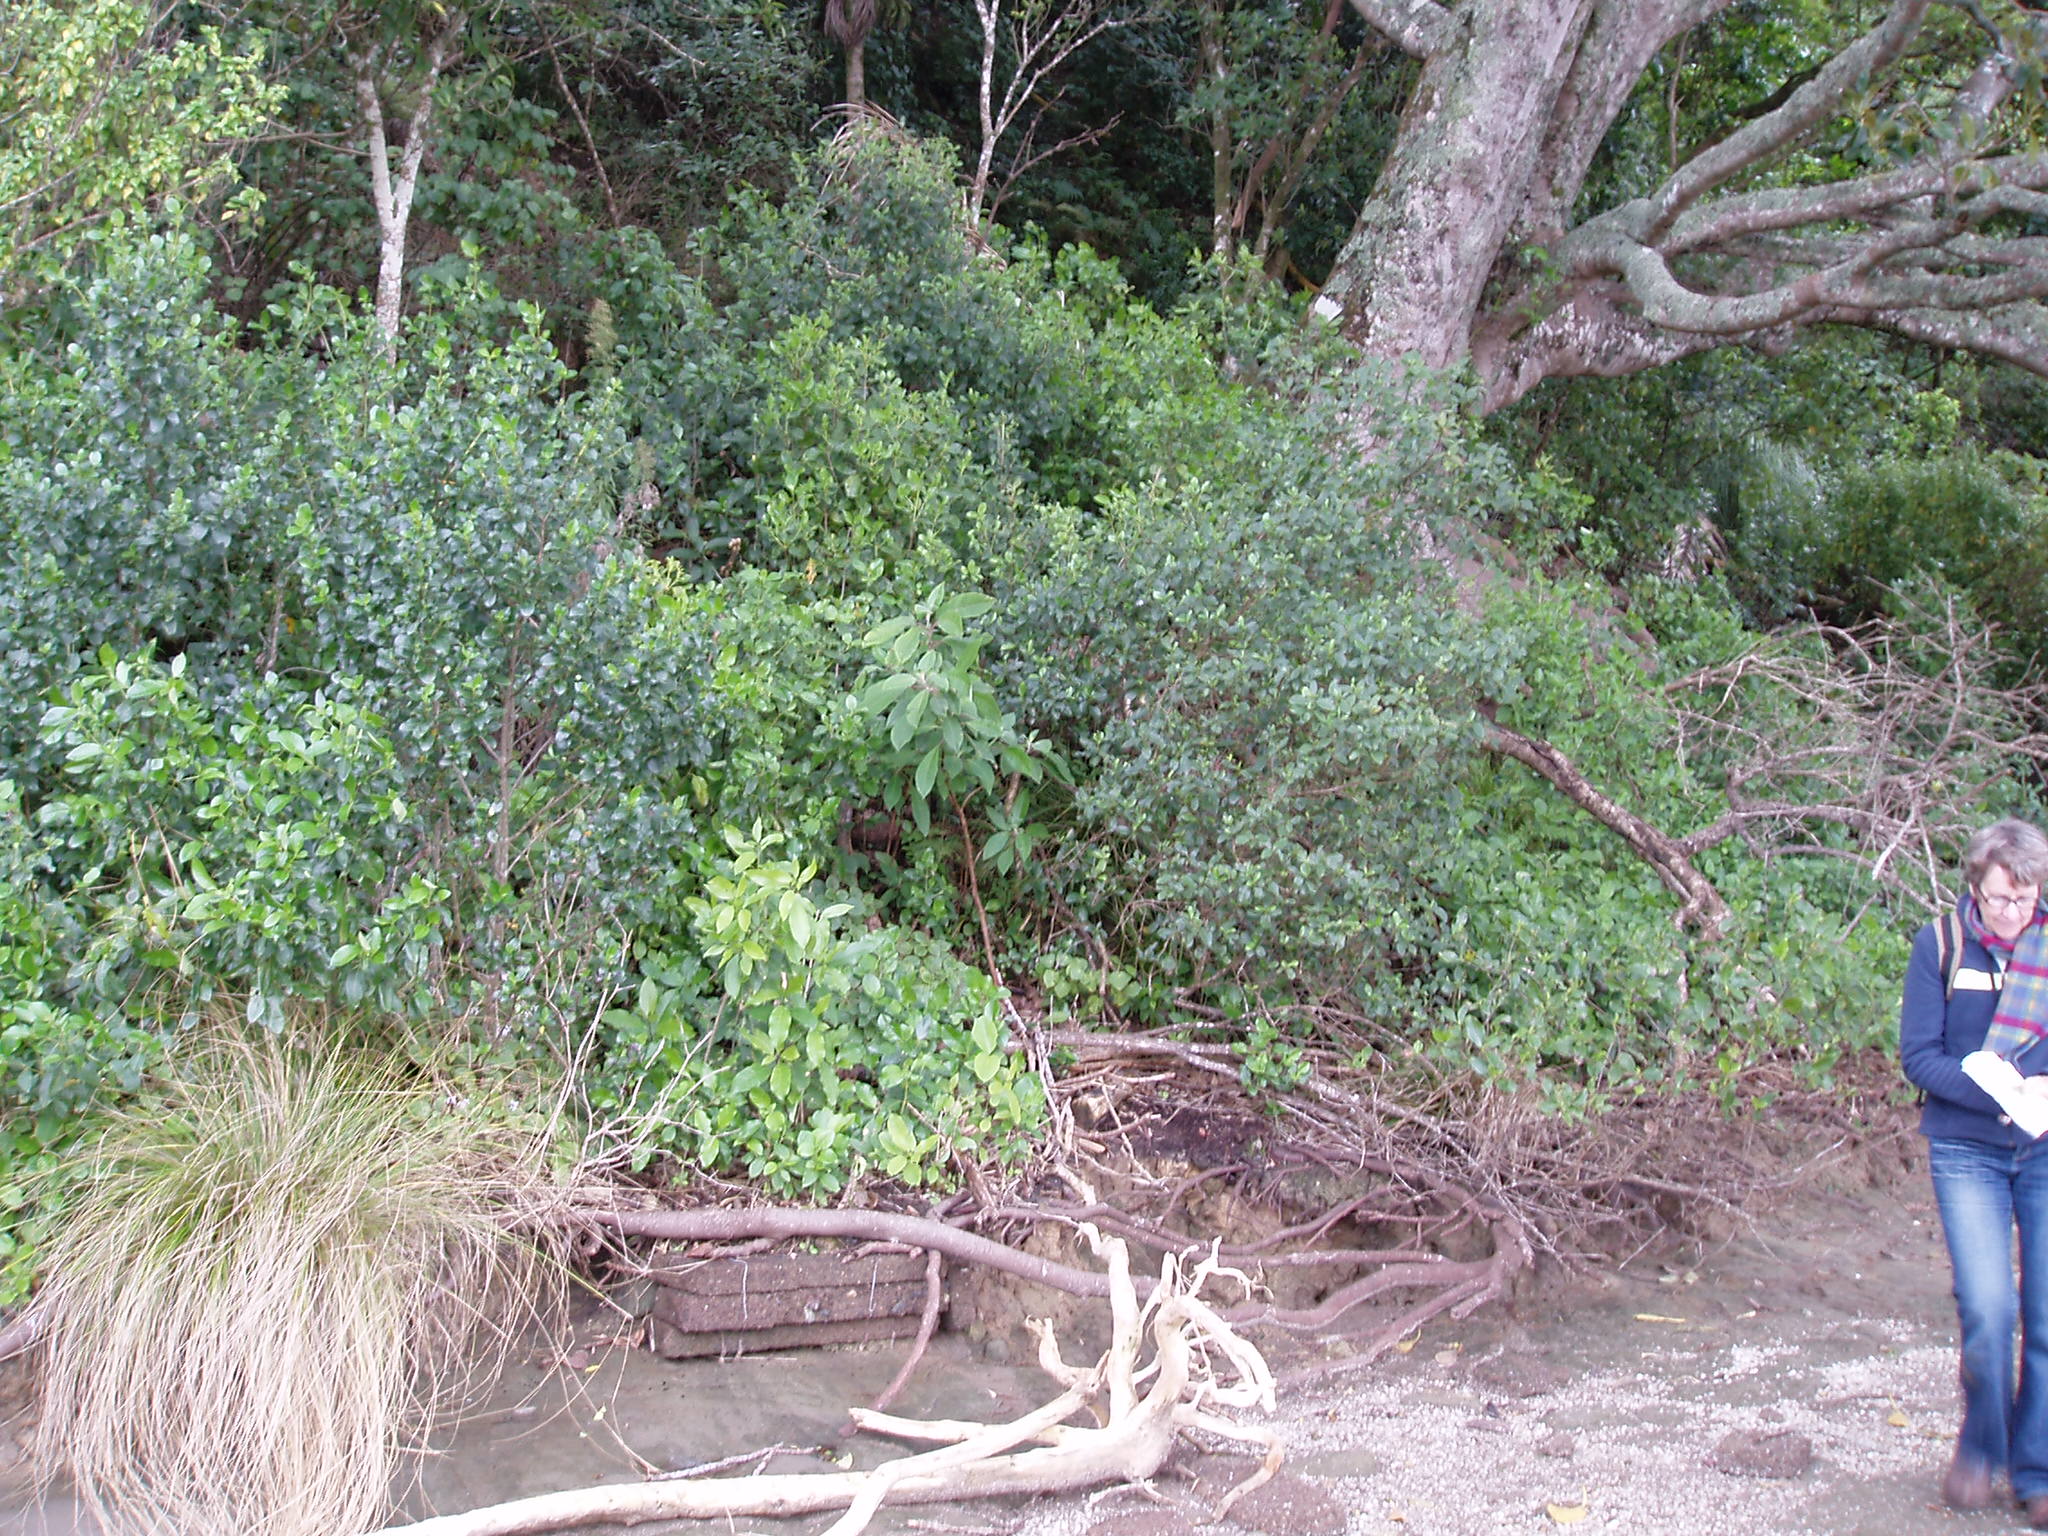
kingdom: Plantae
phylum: Tracheophyta
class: Magnoliopsida
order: Myrtales
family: Onagraceae
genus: Fuchsia
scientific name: Fuchsia boliviana
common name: Bolivian fuchsia
